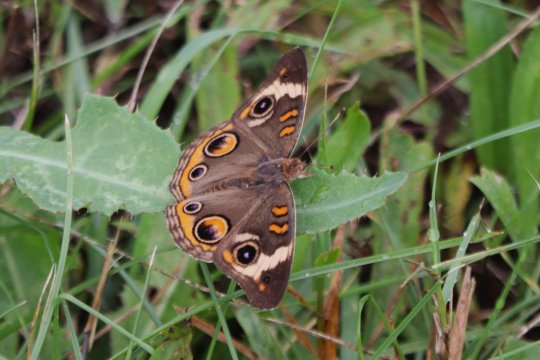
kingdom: Animalia
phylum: Arthropoda
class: Insecta
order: Lepidoptera
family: Nymphalidae
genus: Junonia
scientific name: Junonia coenia
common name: Common Buckeye
